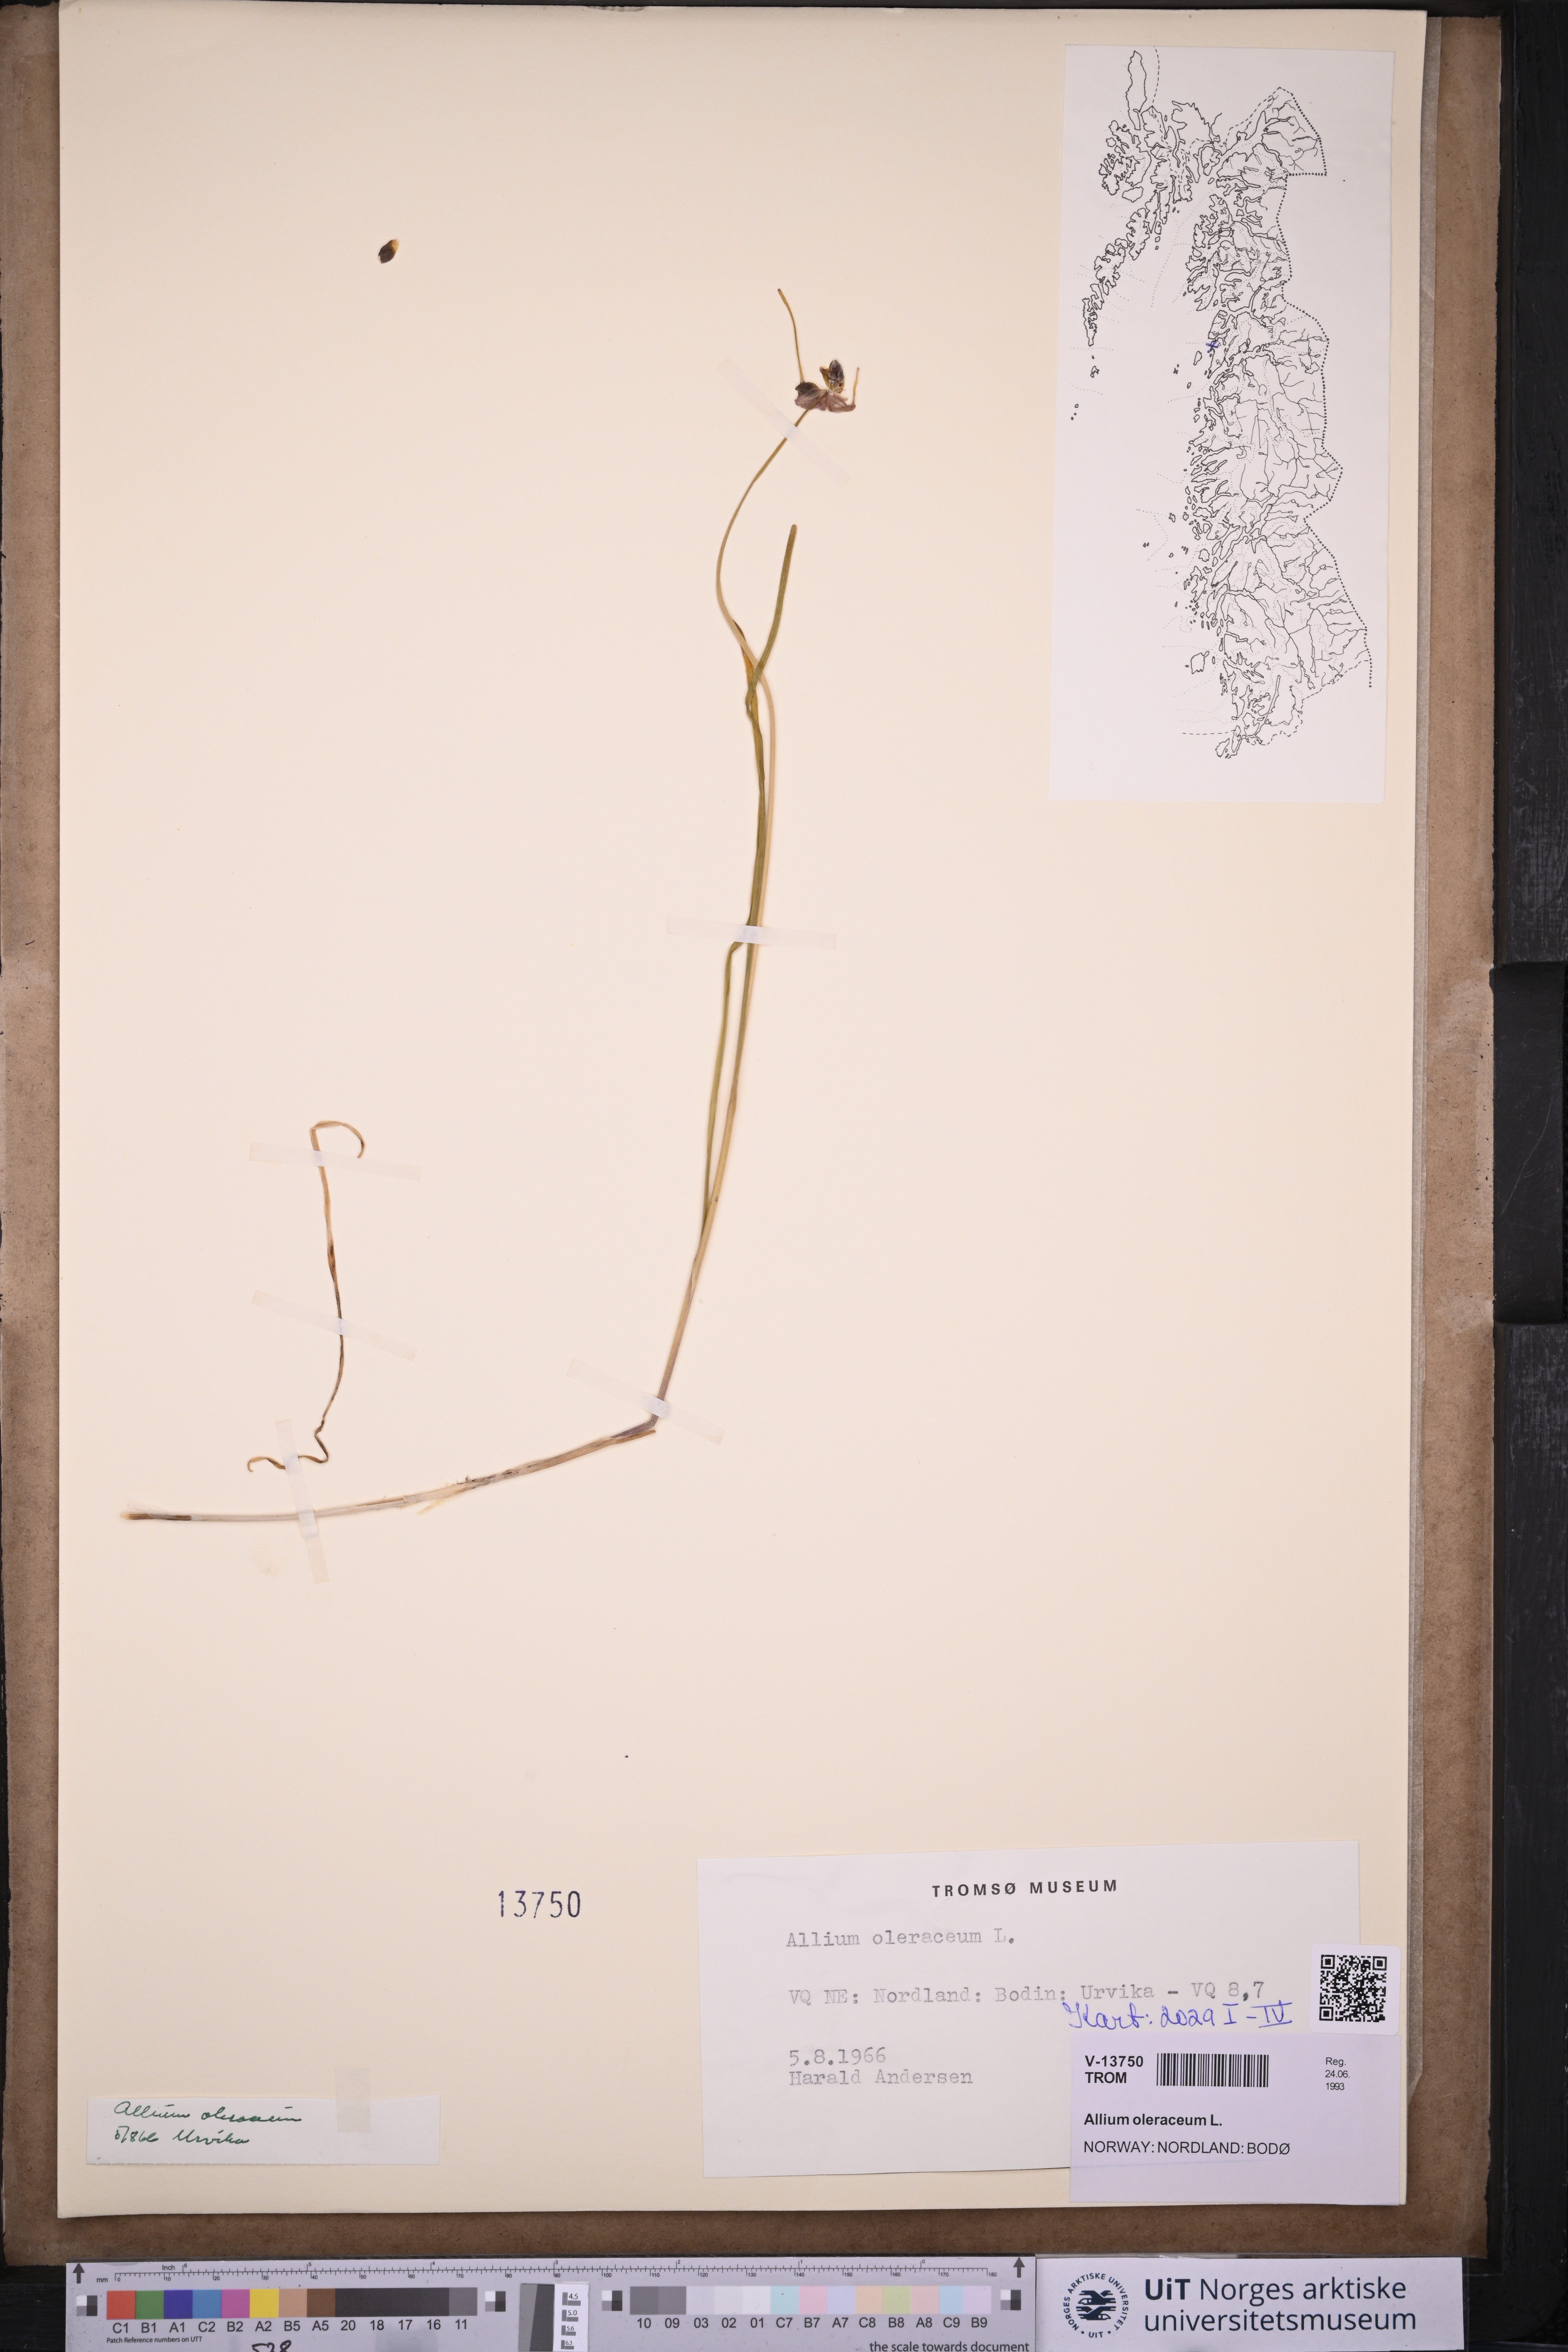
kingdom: Plantae
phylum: Tracheophyta
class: Liliopsida
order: Asparagales
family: Amaryllidaceae
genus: Allium
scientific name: Allium oleraceum
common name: Field garlic
